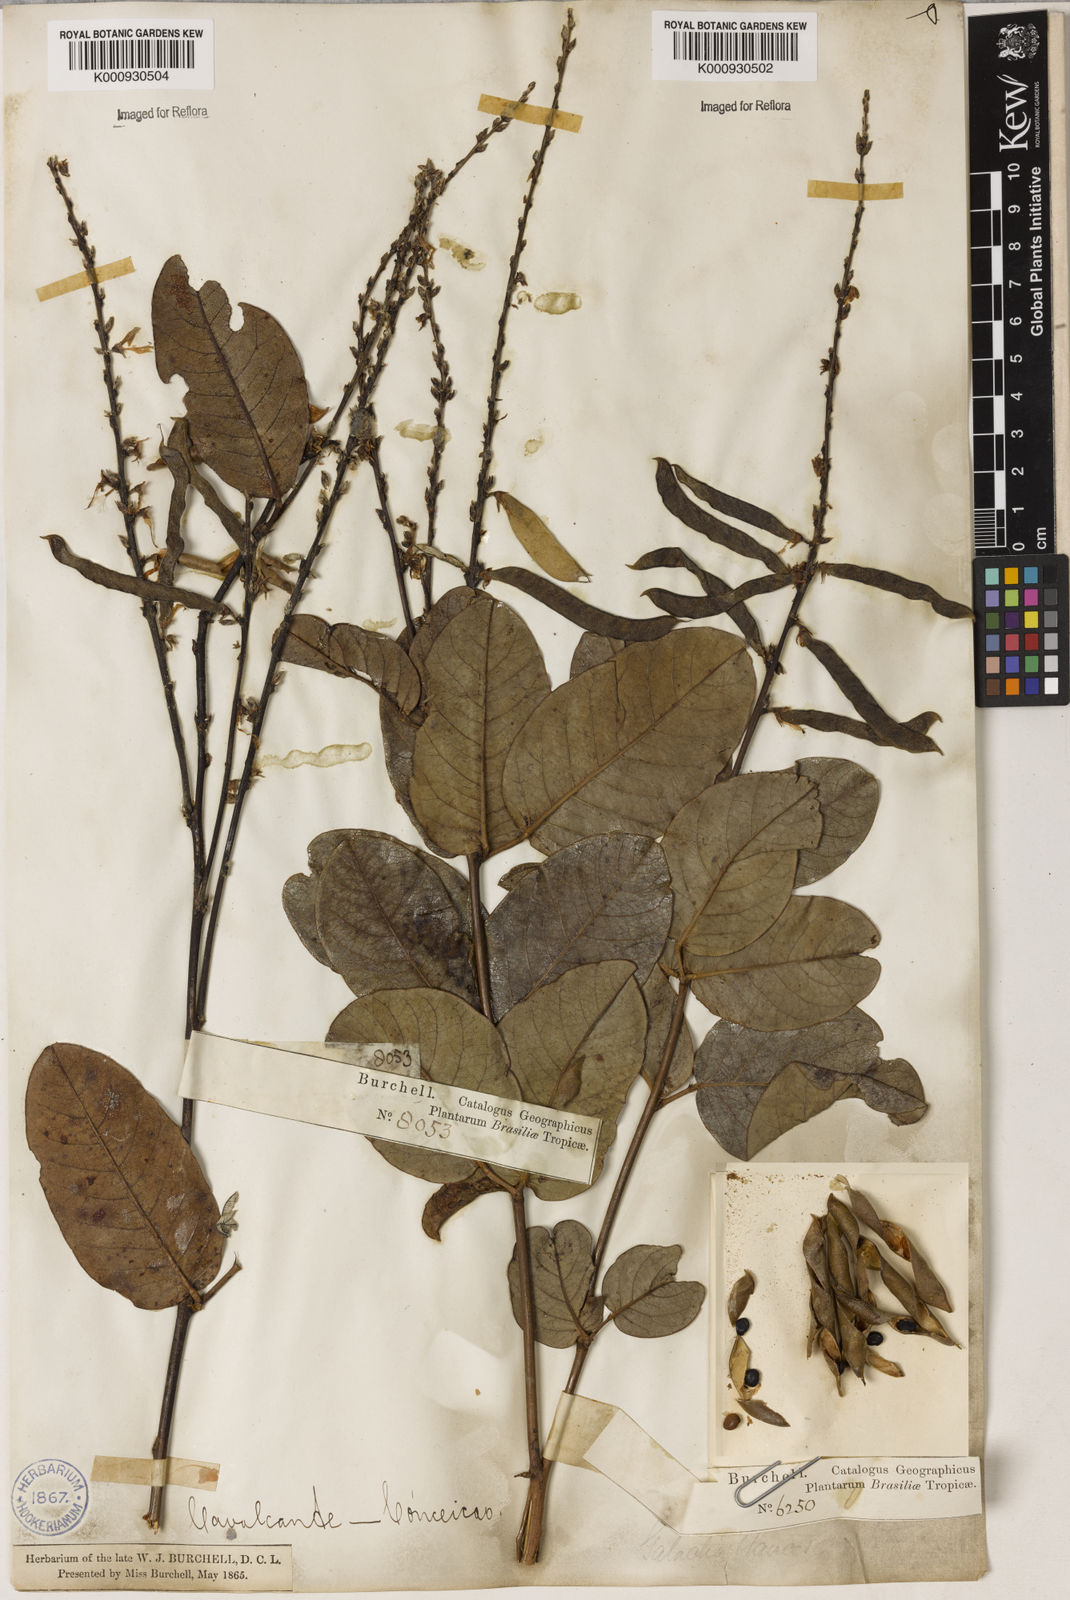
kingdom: Plantae
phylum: Tracheophyta
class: Magnoliopsida
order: Fabales
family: Fabaceae
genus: Galactia
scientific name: Galactia glaucescens
